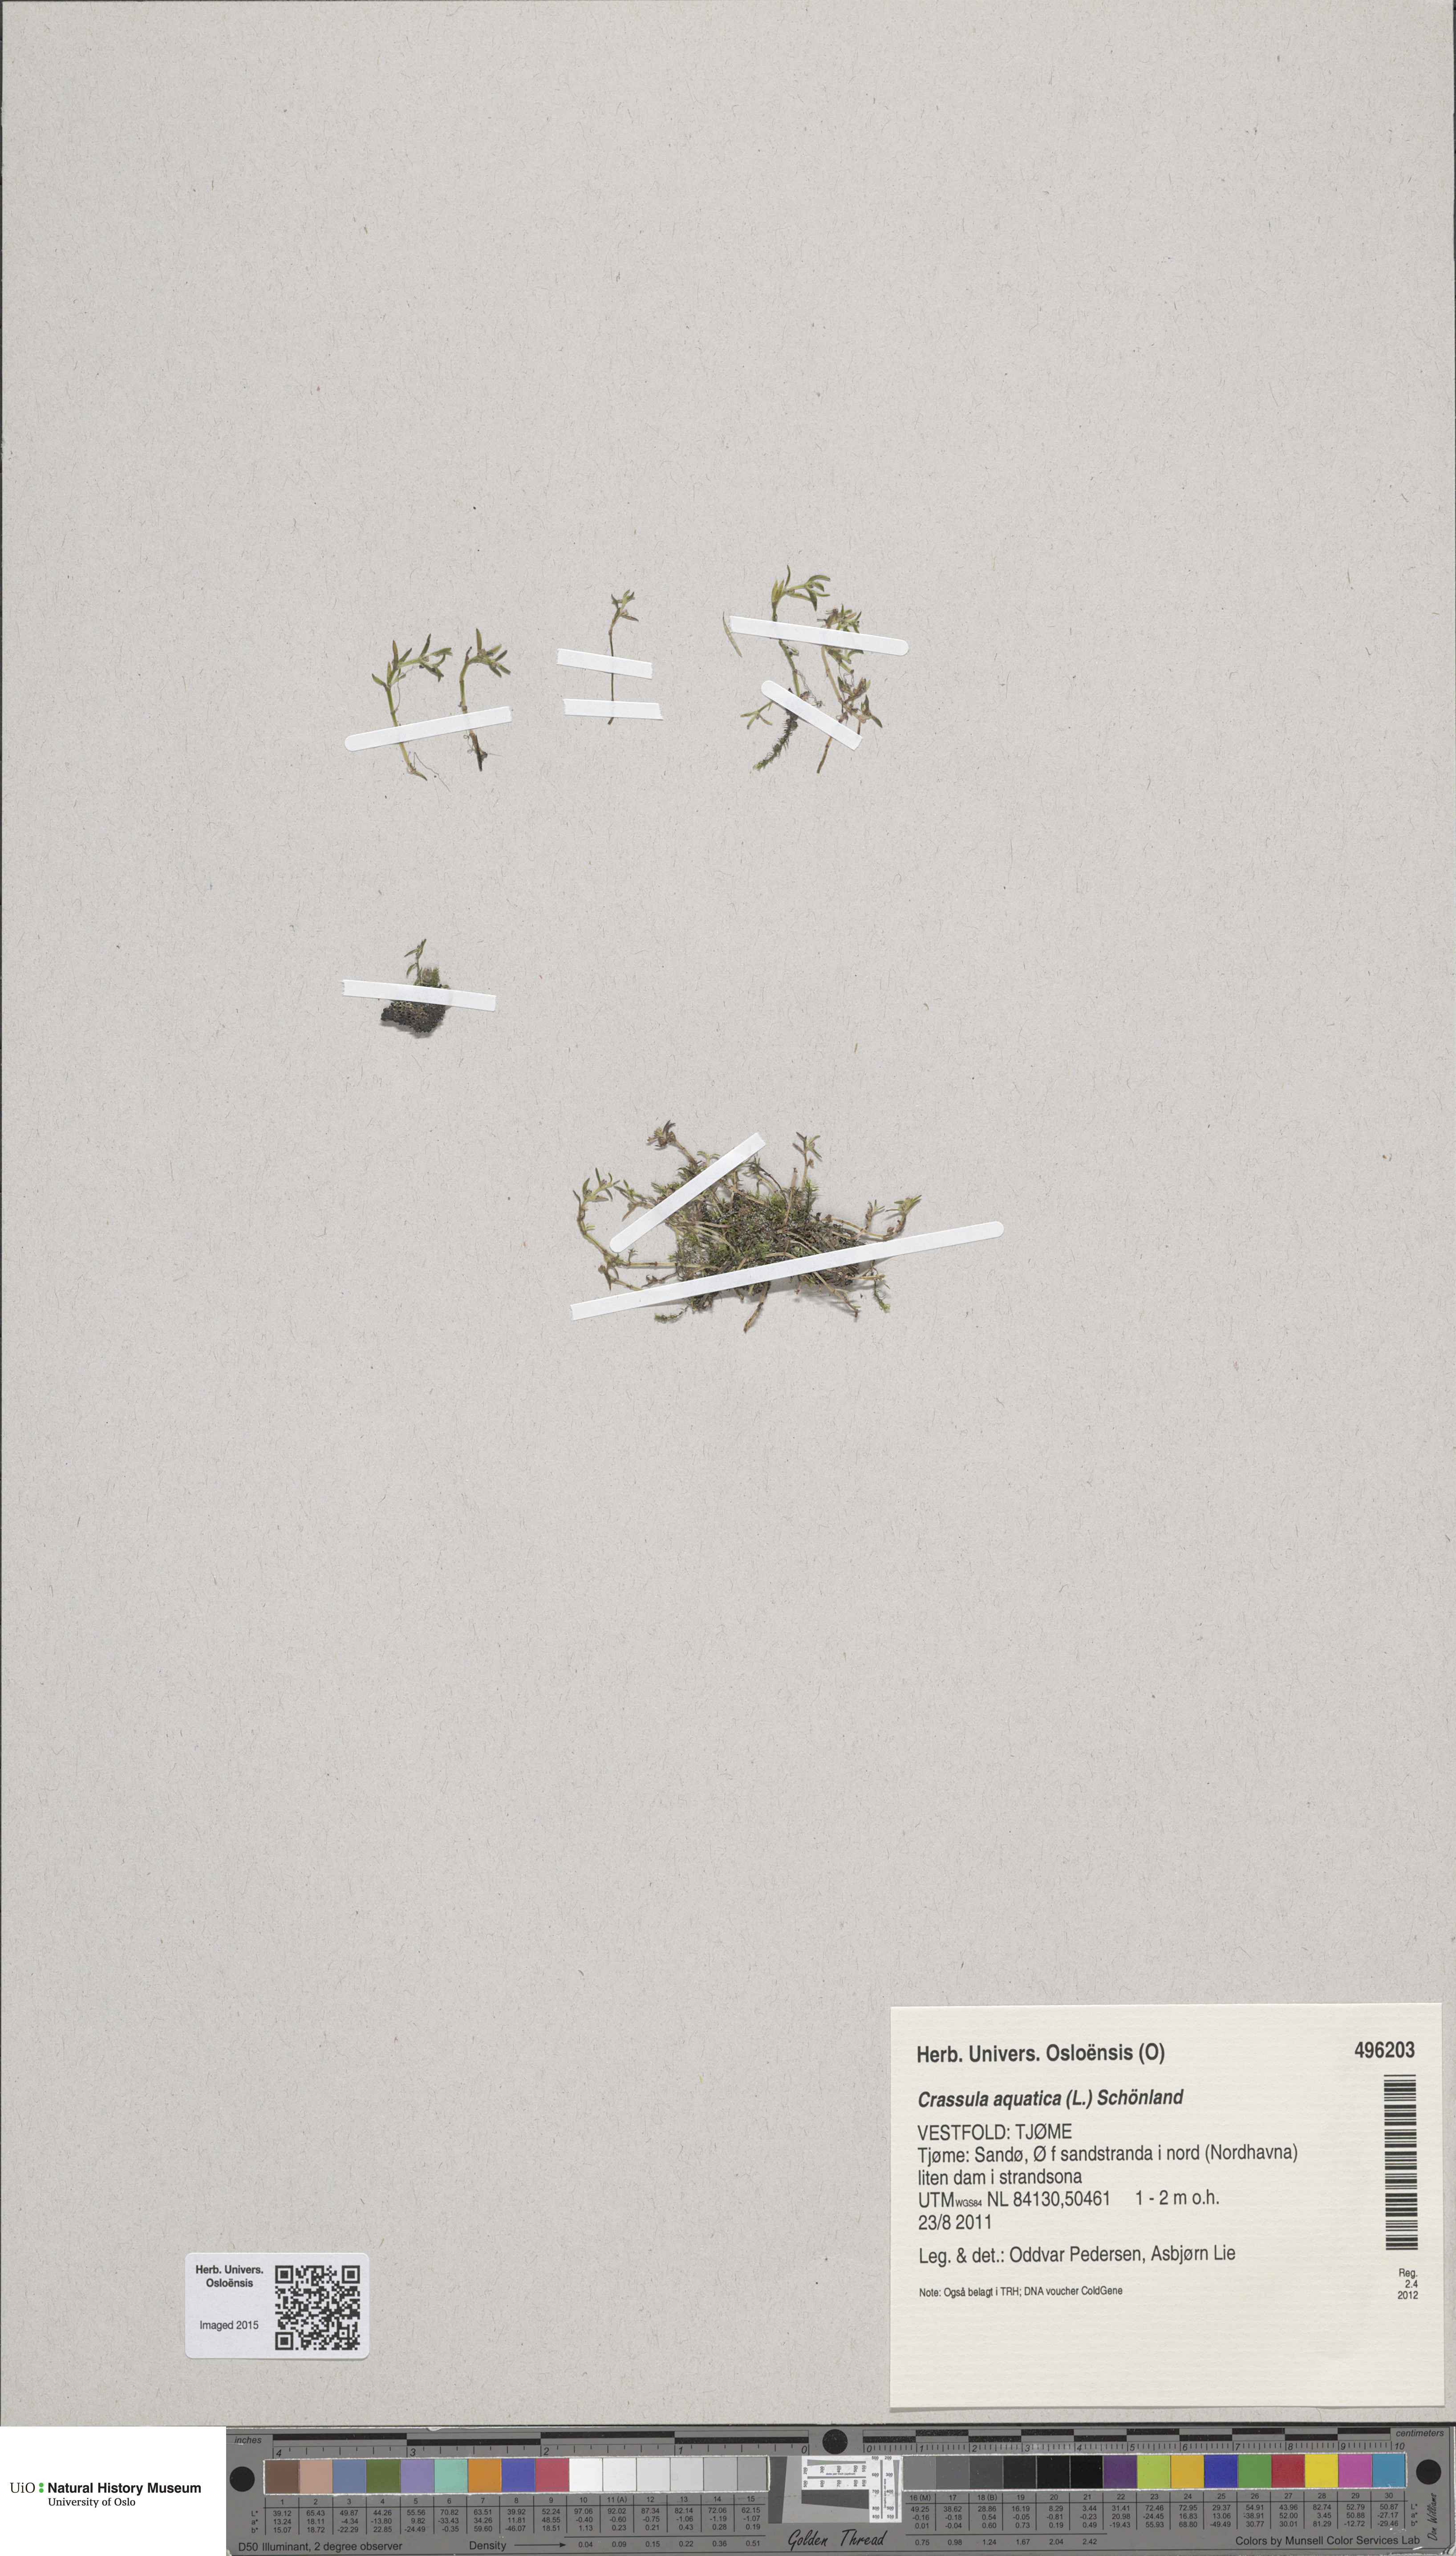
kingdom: Plantae
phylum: Tracheophyta
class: Magnoliopsida
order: Saxifragales
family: Crassulaceae
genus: Crassula
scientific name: Crassula aquatica
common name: Pigmyweed
